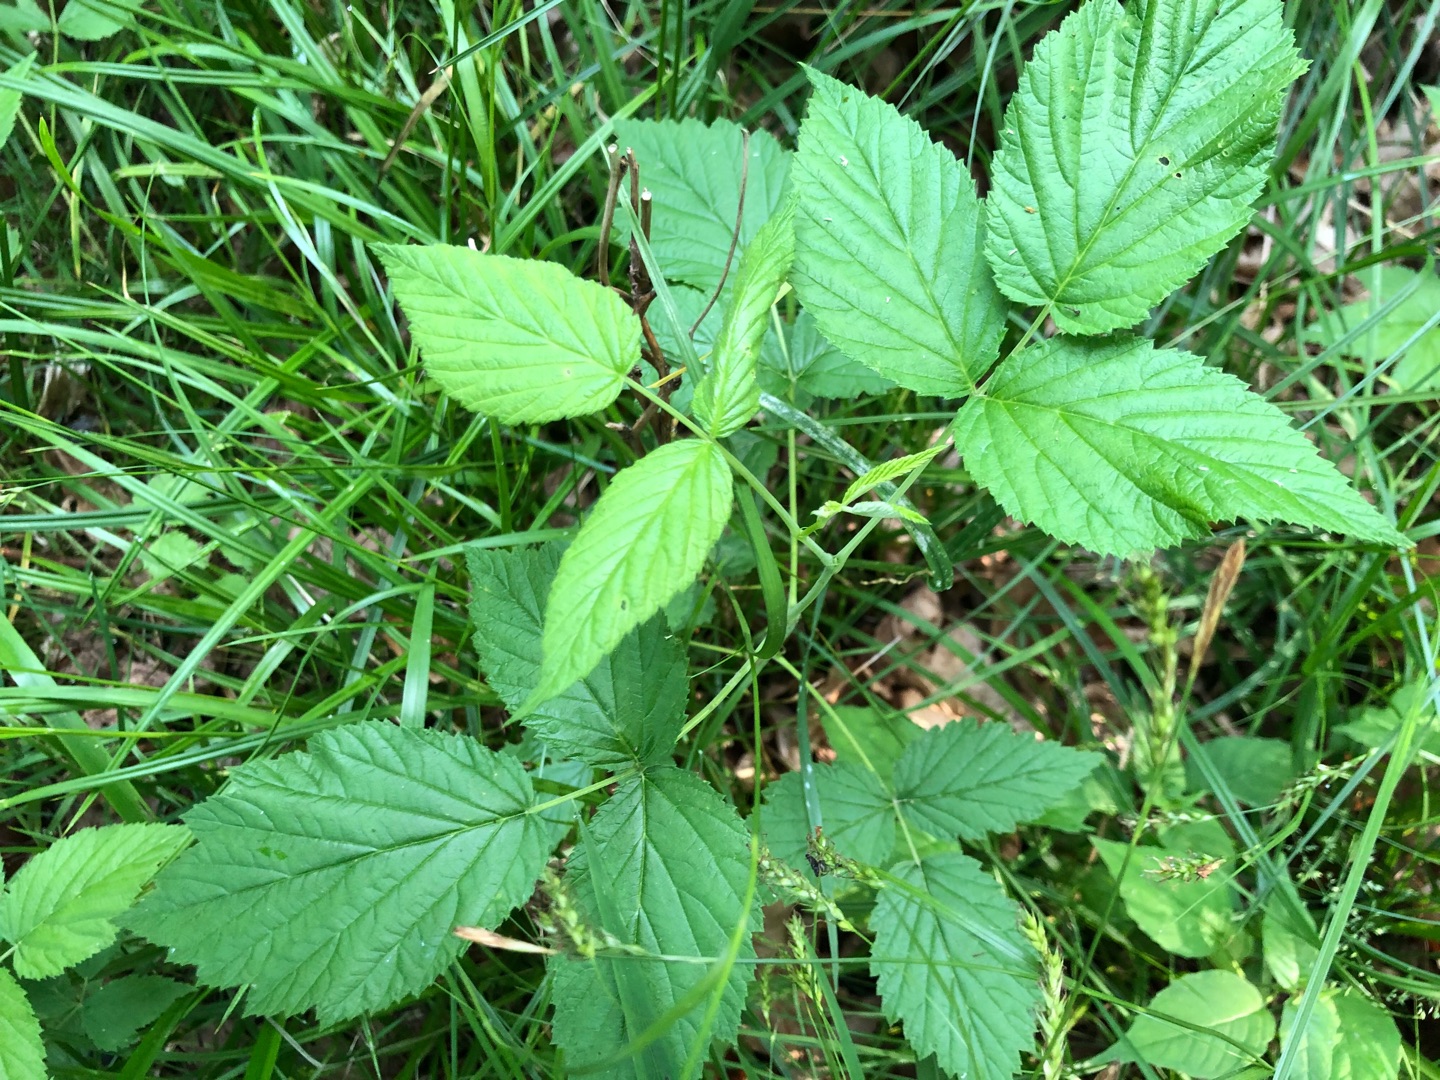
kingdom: Plantae
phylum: Tracheophyta
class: Magnoliopsida
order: Rosales
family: Rosaceae
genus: Rubus
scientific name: Rubus idaeus
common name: Hindbær
